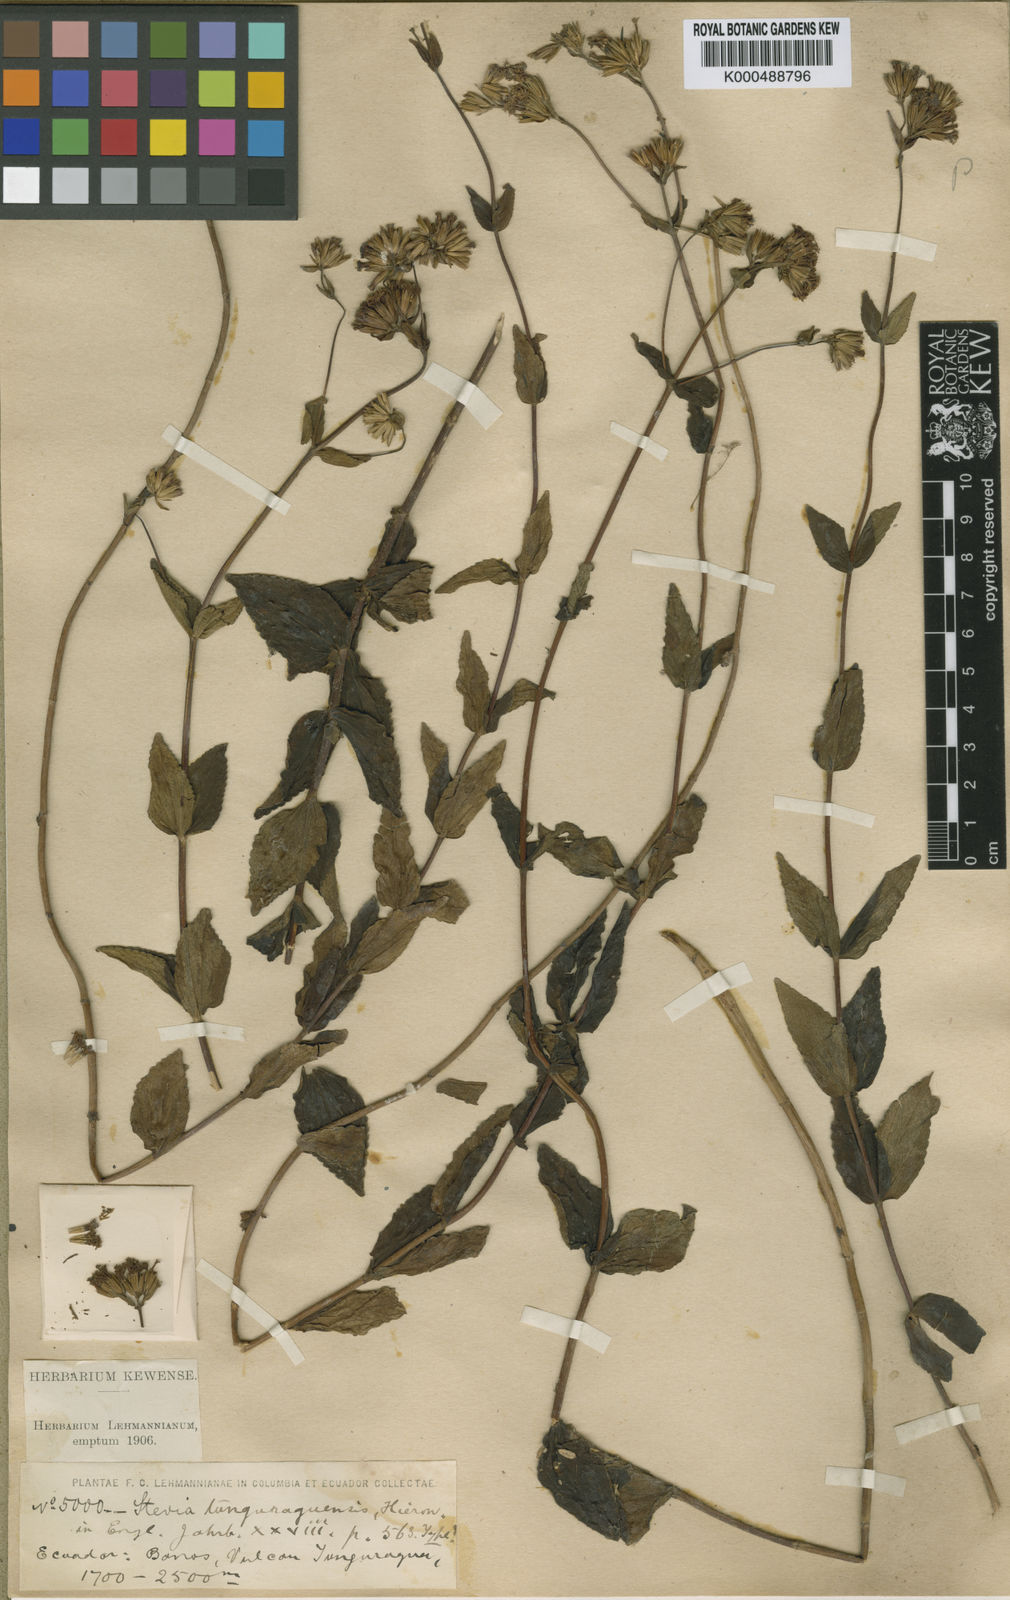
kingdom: Plantae
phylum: Tracheophyta
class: Magnoliopsida
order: Asterales
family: Asteraceae
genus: Stevia
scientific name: Stevia tunguraguensis
